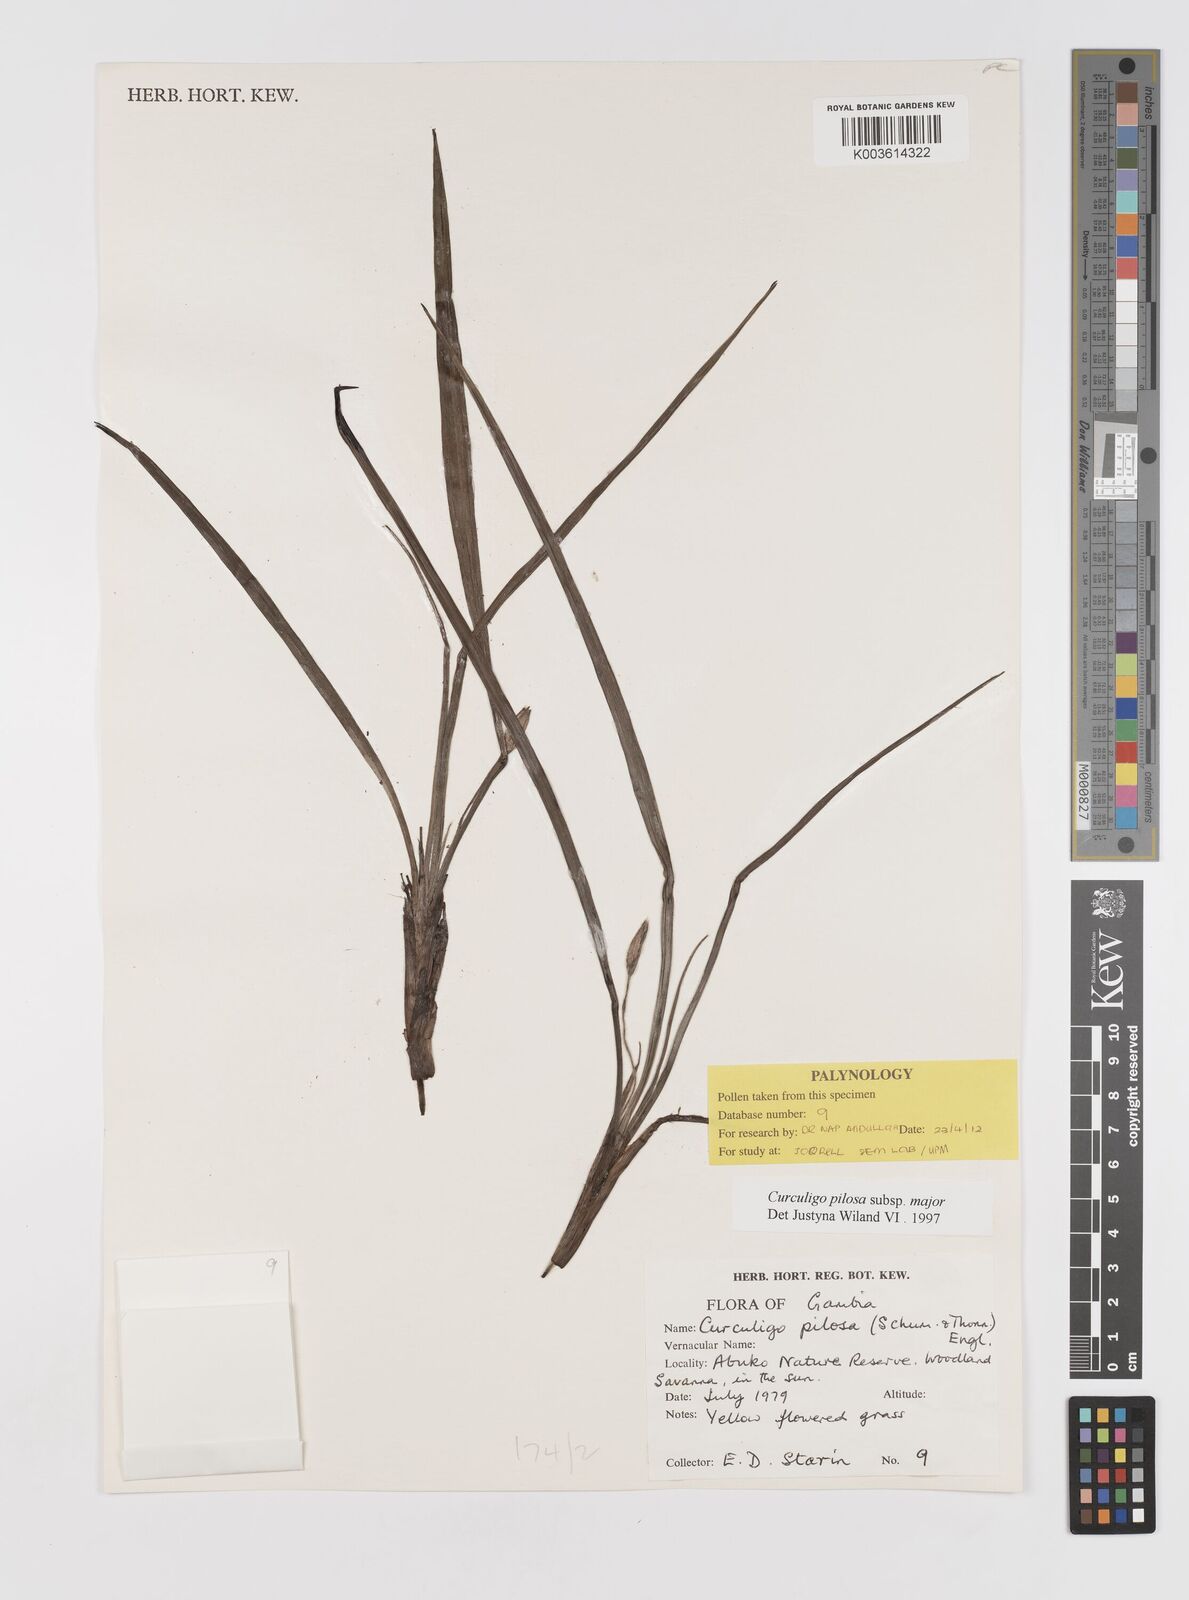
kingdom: Plantae
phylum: Tracheophyta
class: Liliopsida
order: Asparagales
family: Hypoxidaceae
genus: Curculigo
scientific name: Curculigo pilosa
